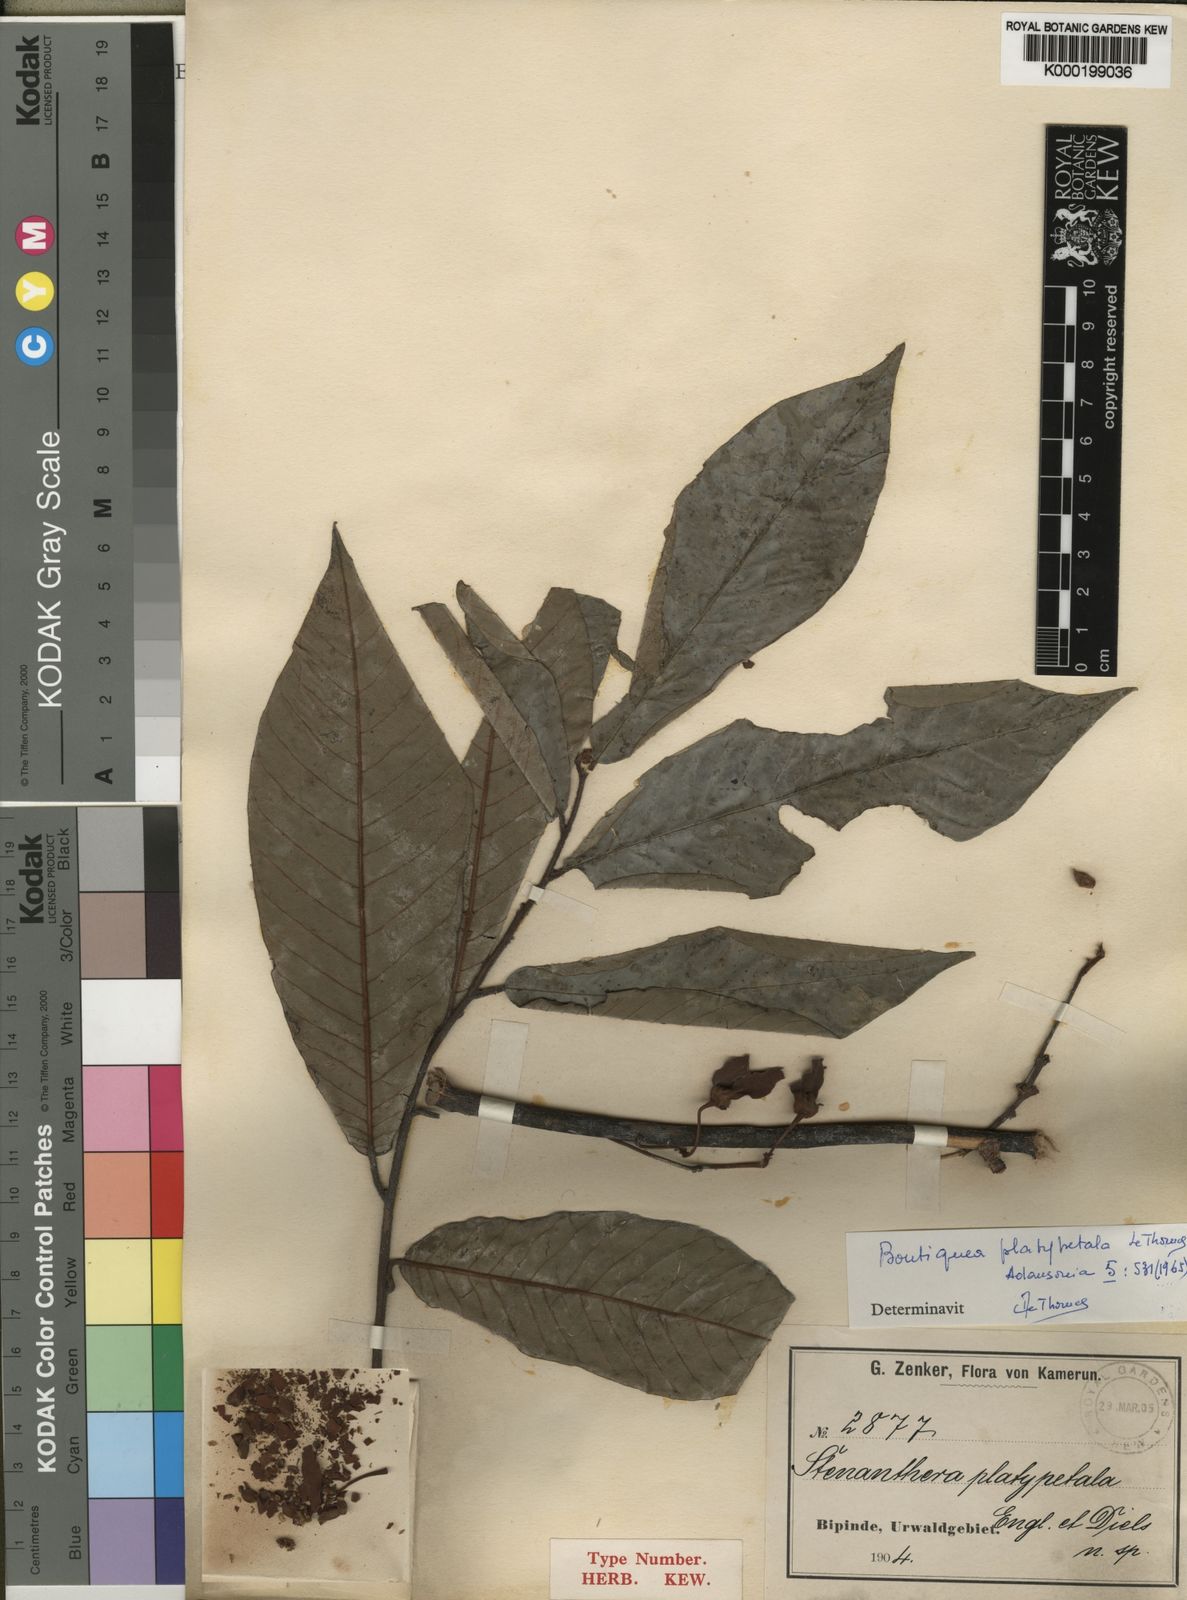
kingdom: Plantae
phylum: Tracheophyta
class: Magnoliopsida
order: Magnoliales
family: Annonaceae
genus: Boutiquea
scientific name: Boutiquea platypetala
